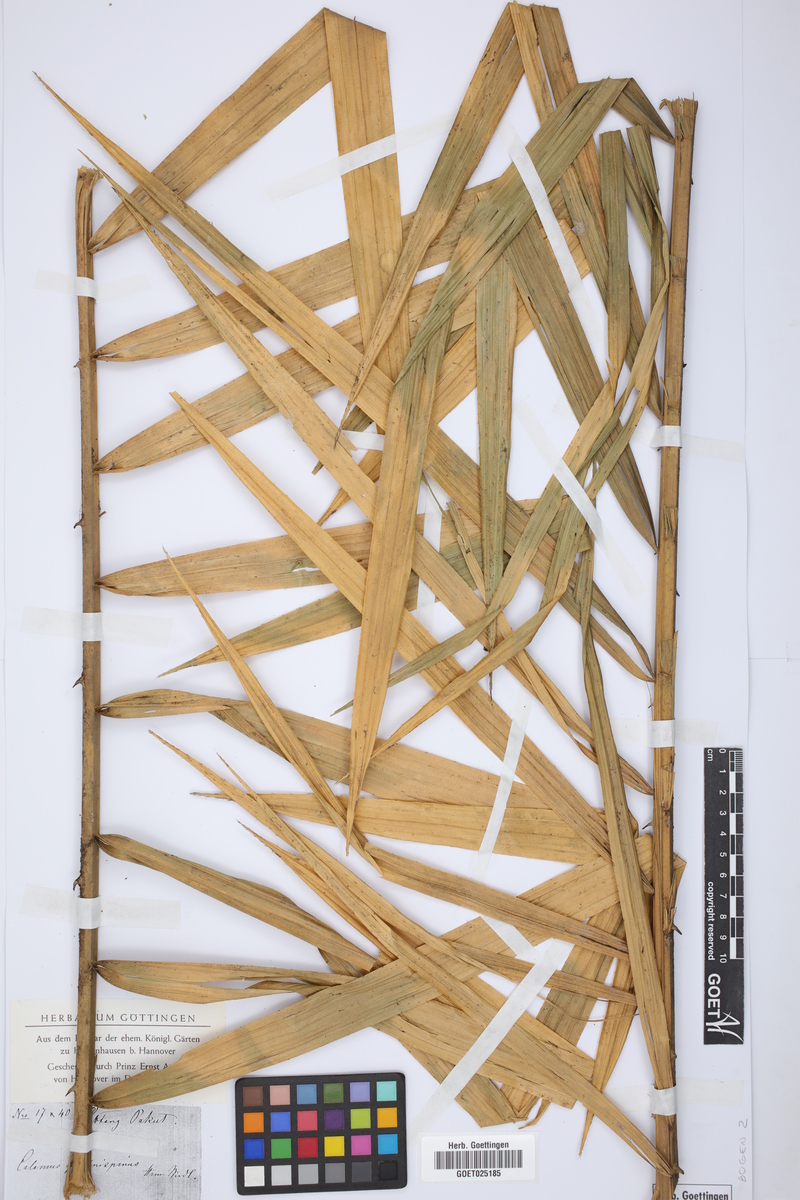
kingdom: Plantae
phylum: Tracheophyta
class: Liliopsida
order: Arecales
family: Arecaceae
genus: Calamus
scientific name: Calamus
